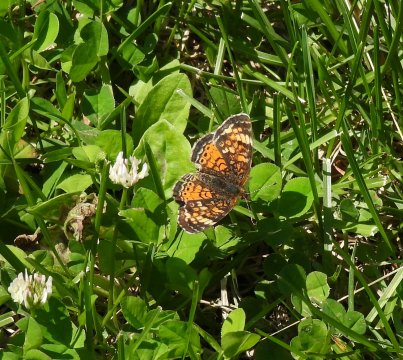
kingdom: Animalia
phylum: Arthropoda
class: Insecta
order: Lepidoptera
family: Nymphalidae
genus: Phyciodes
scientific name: Phyciodes tharos
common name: Northern Crescent
